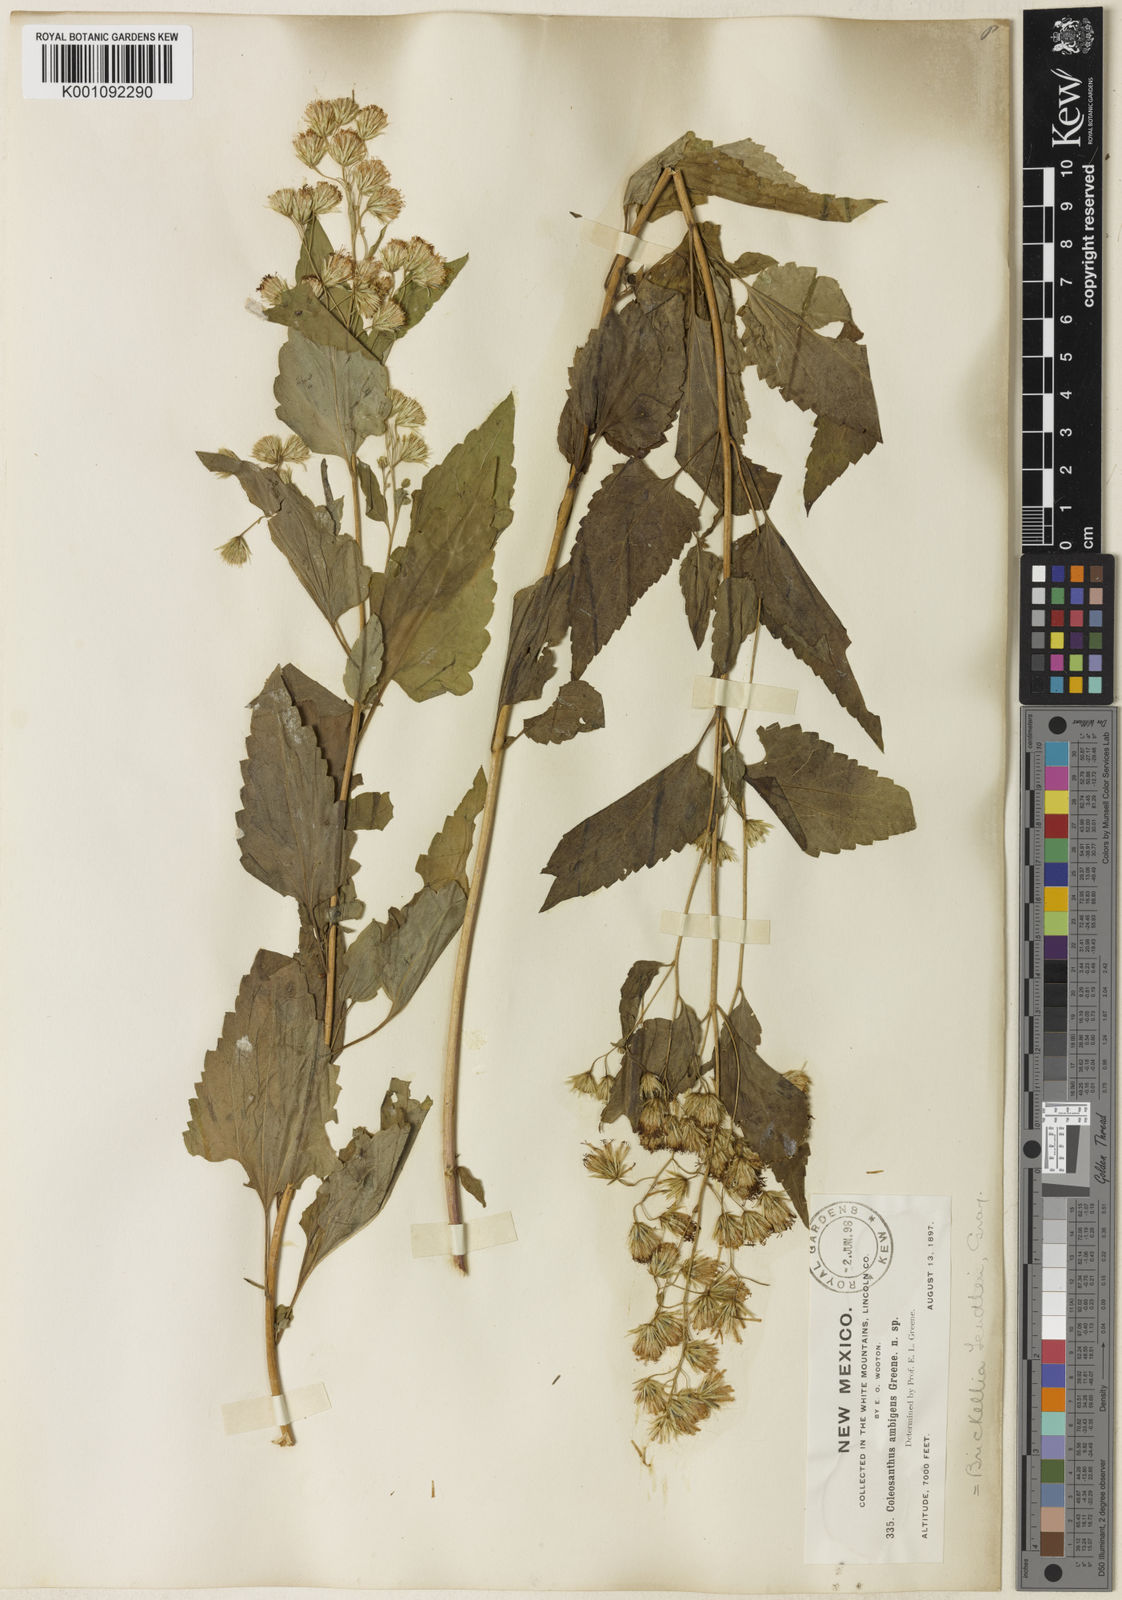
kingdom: Plantae
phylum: Tracheophyta
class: Magnoliopsida
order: Asterales
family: Asteraceae
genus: Brickelliastrum
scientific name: Brickelliastrum fendleri
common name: Fendler's-brickellbush
